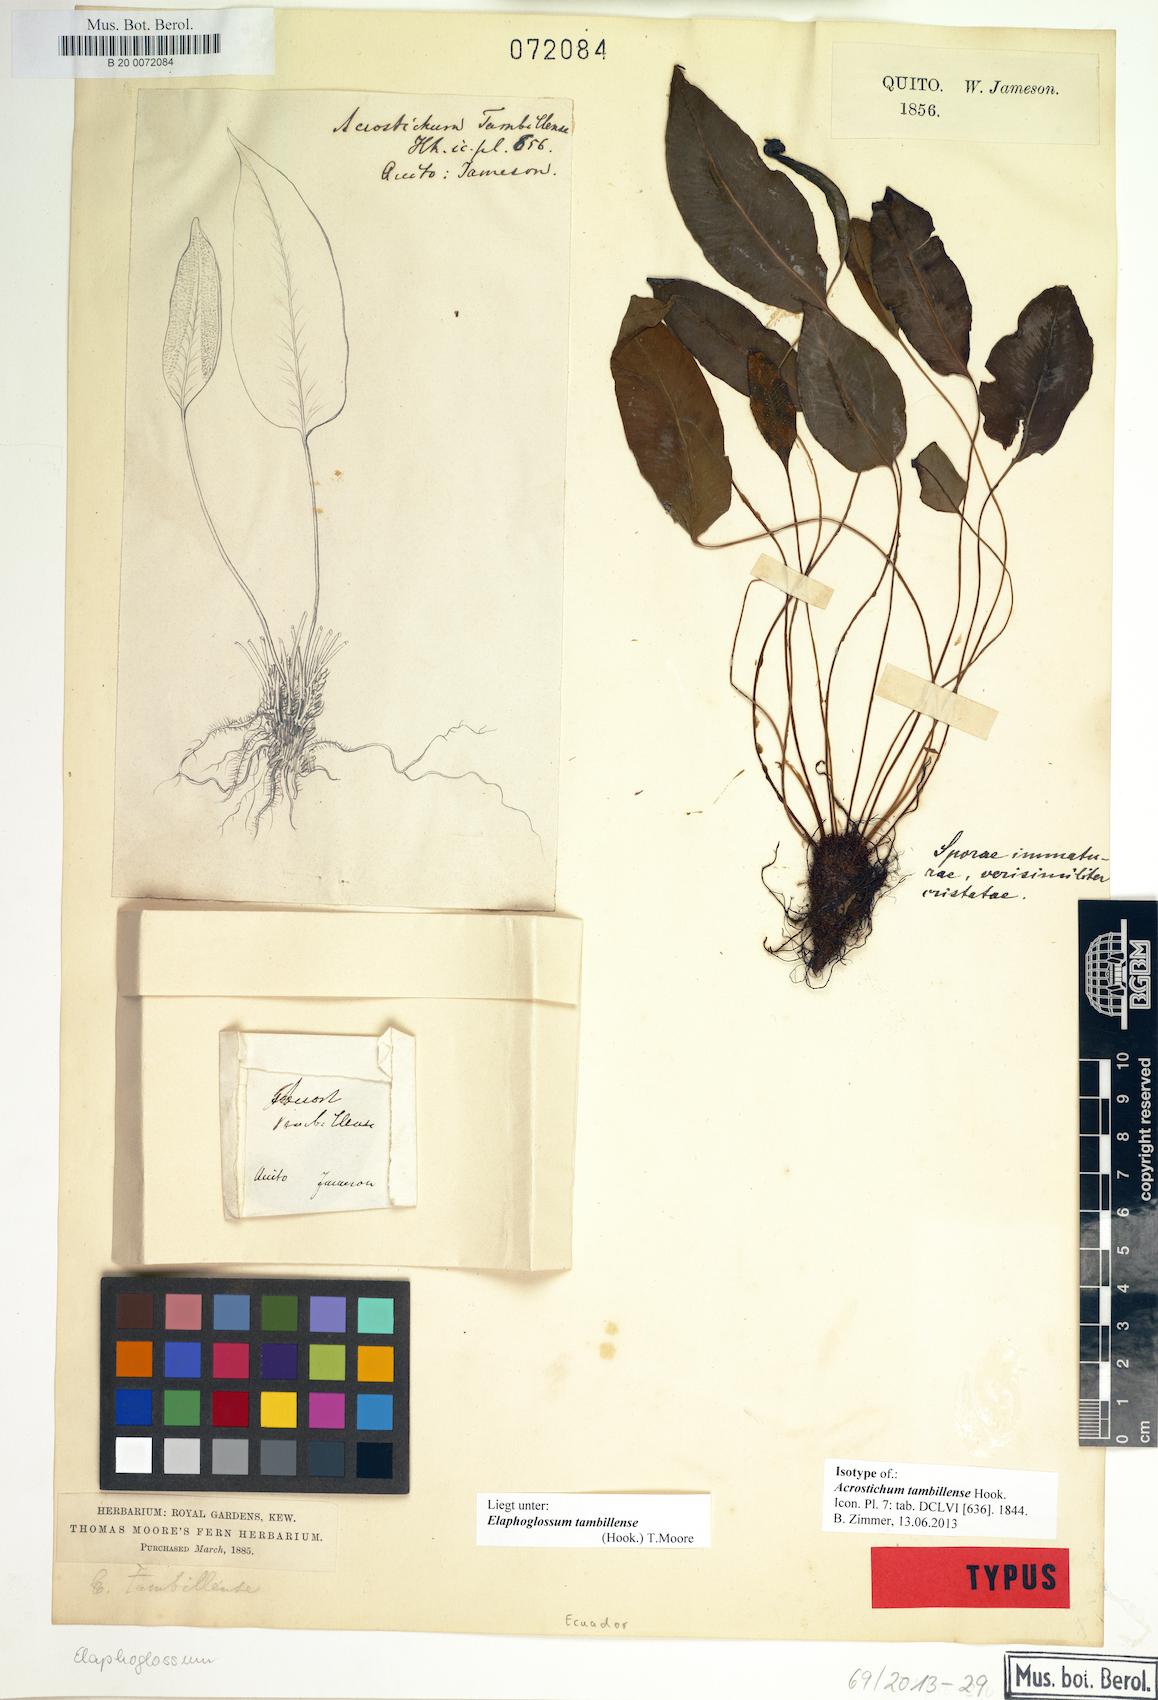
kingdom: Plantae
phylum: Tracheophyta
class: Polypodiopsida
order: Polypodiales
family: Dryopteridaceae
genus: Elaphoglossum
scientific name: Elaphoglossum tambillense
